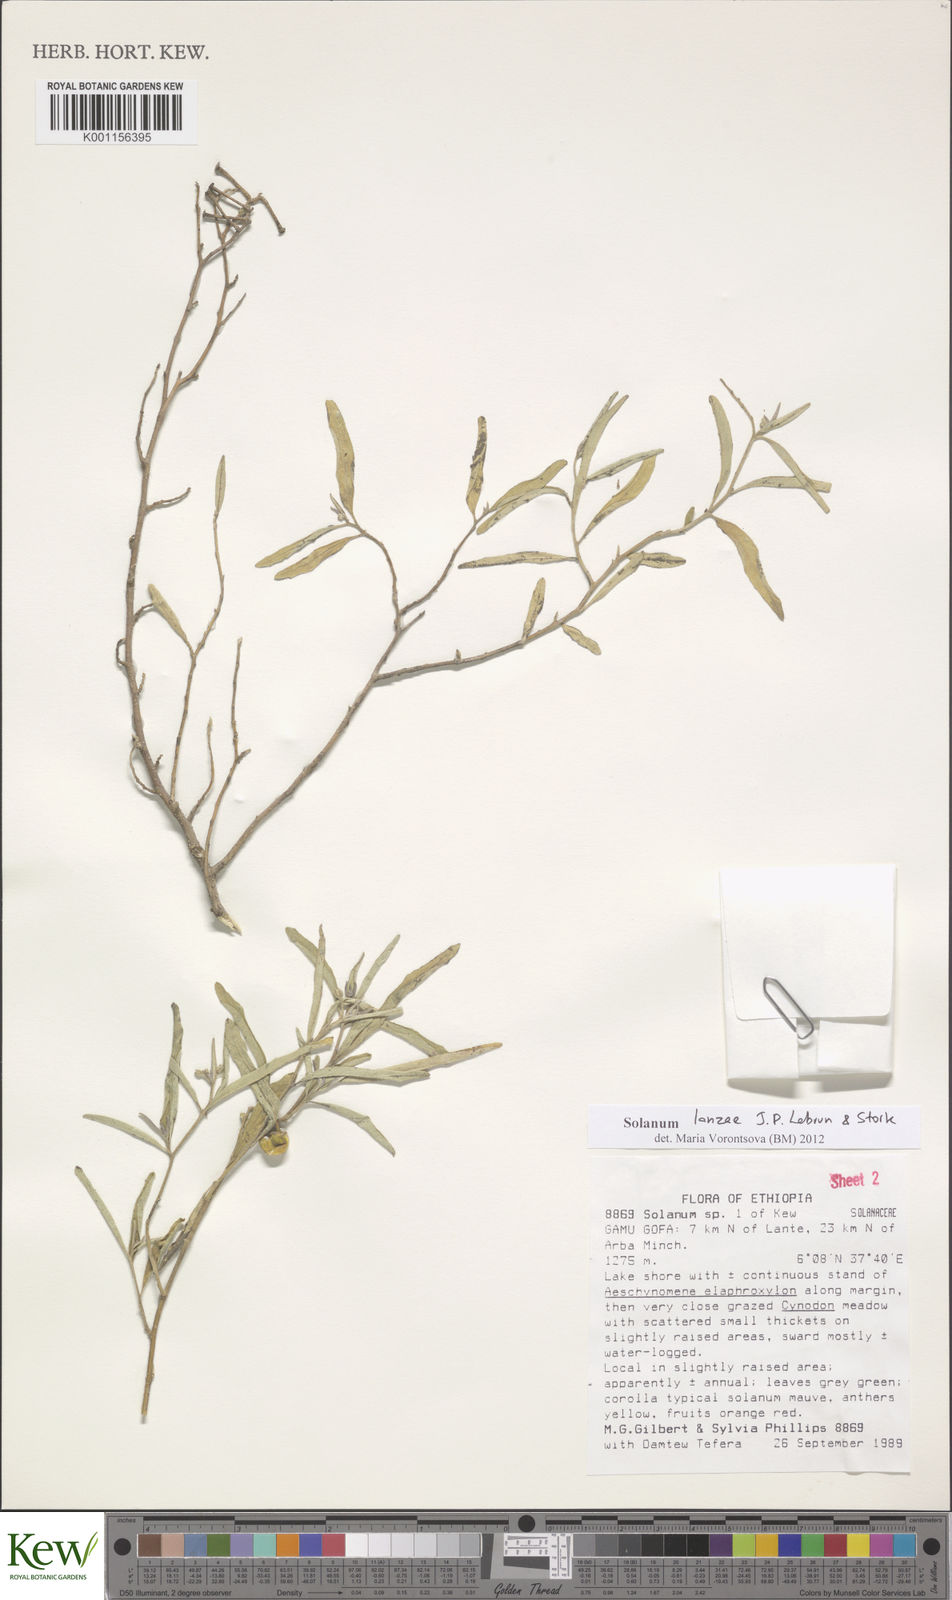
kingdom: Plantae
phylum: Tracheophyta
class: Magnoliopsida
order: Solanales
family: Solanaceae
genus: Solanum
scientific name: Solanum lanzae
